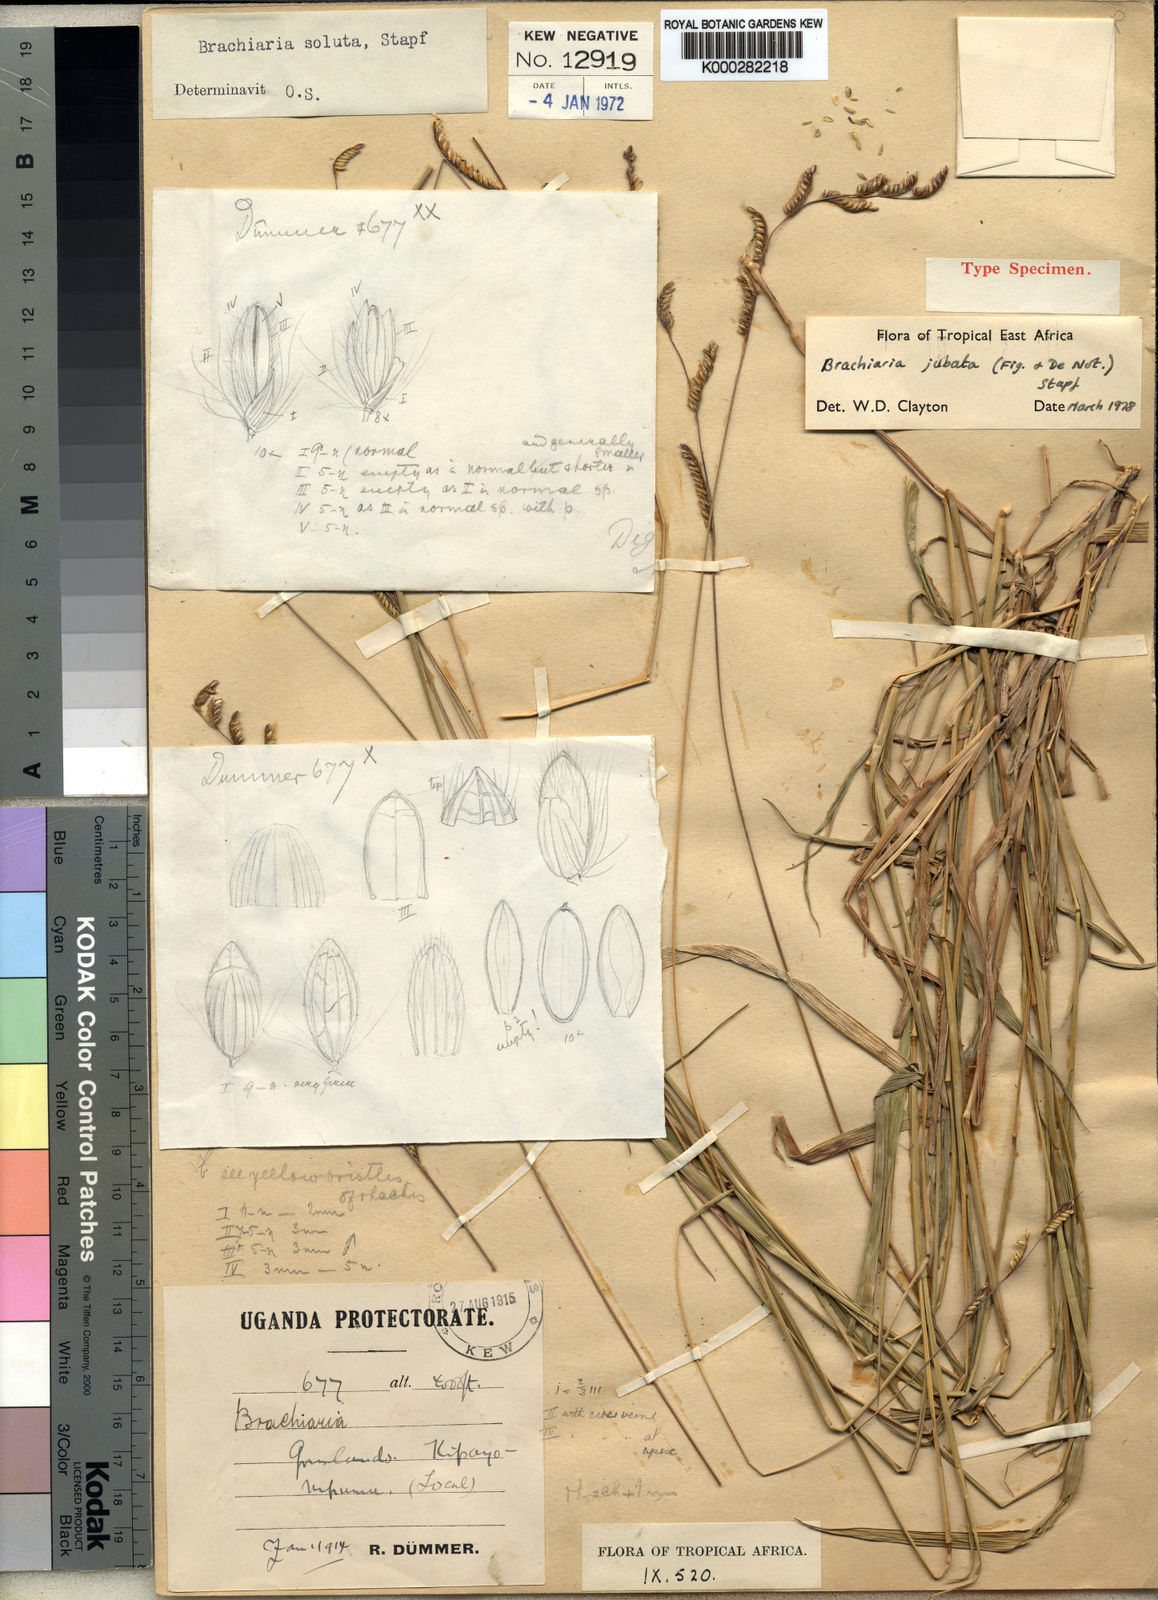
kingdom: Plantae
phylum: Tracheophyta
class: Liliopsida
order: Poales
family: Poaceae
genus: Urochloa
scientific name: Urochloa jubata
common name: Buffalograss
